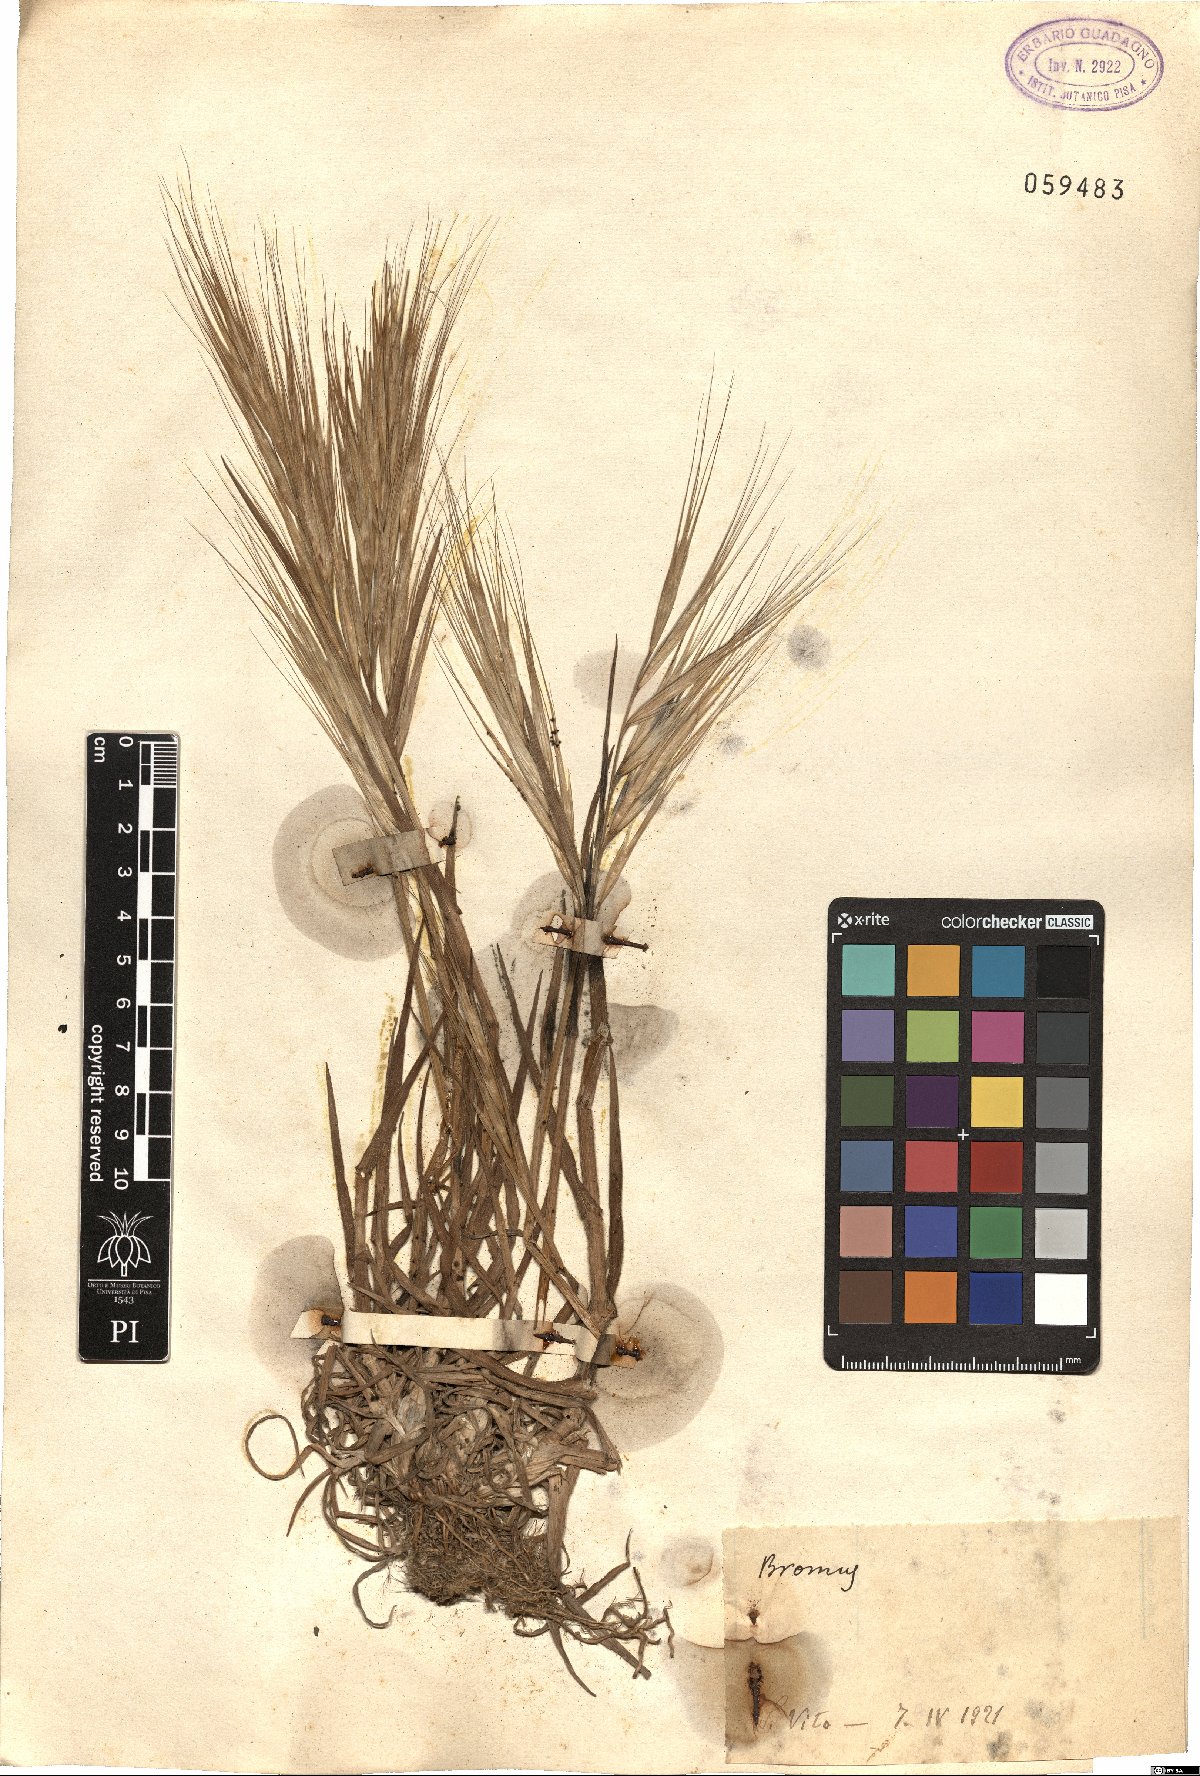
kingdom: Plantae
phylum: Tracheophyta
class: Liliopsida
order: Poales
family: Poaceae
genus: Bromus
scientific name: Bromus
